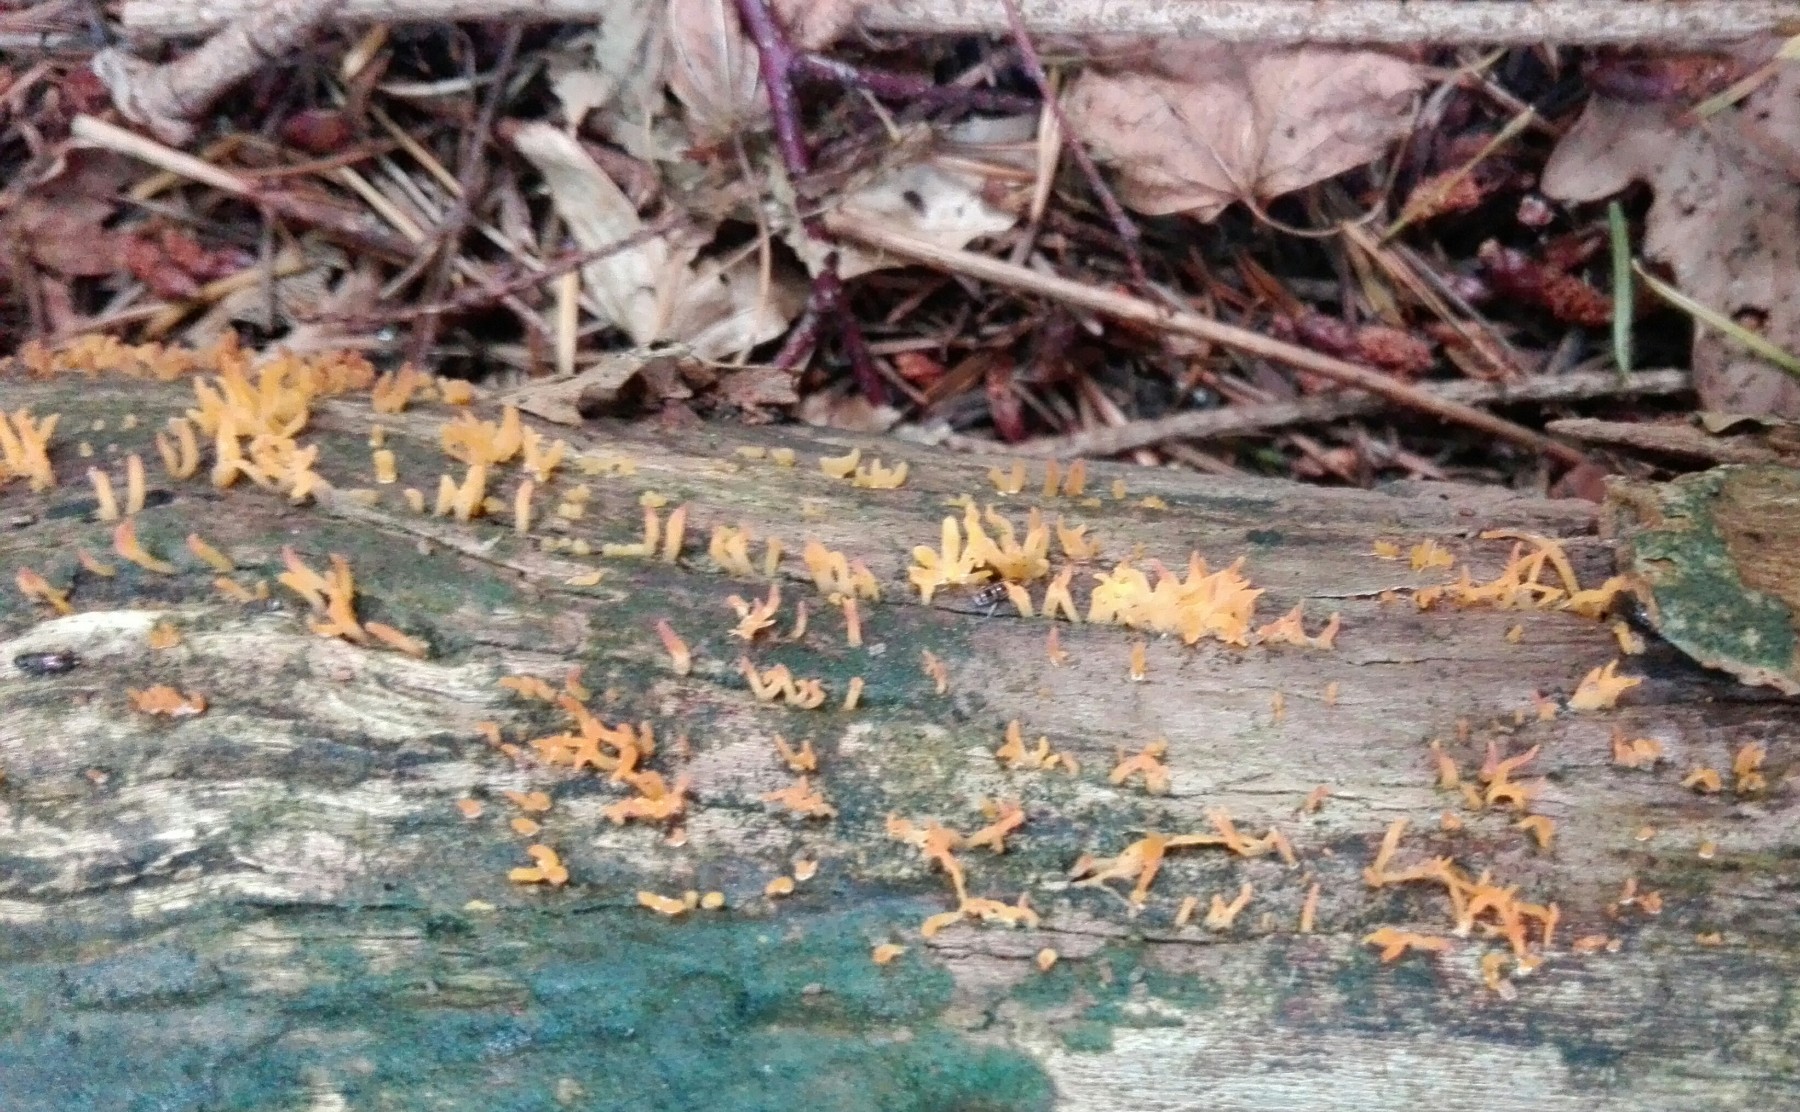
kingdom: Fungi
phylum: Basidiomycota
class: Dacrymycetes
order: Dacrymycetales
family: Dacrymycetaceae
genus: Calocera
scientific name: Calocera cornea
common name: liden guldgaffel
